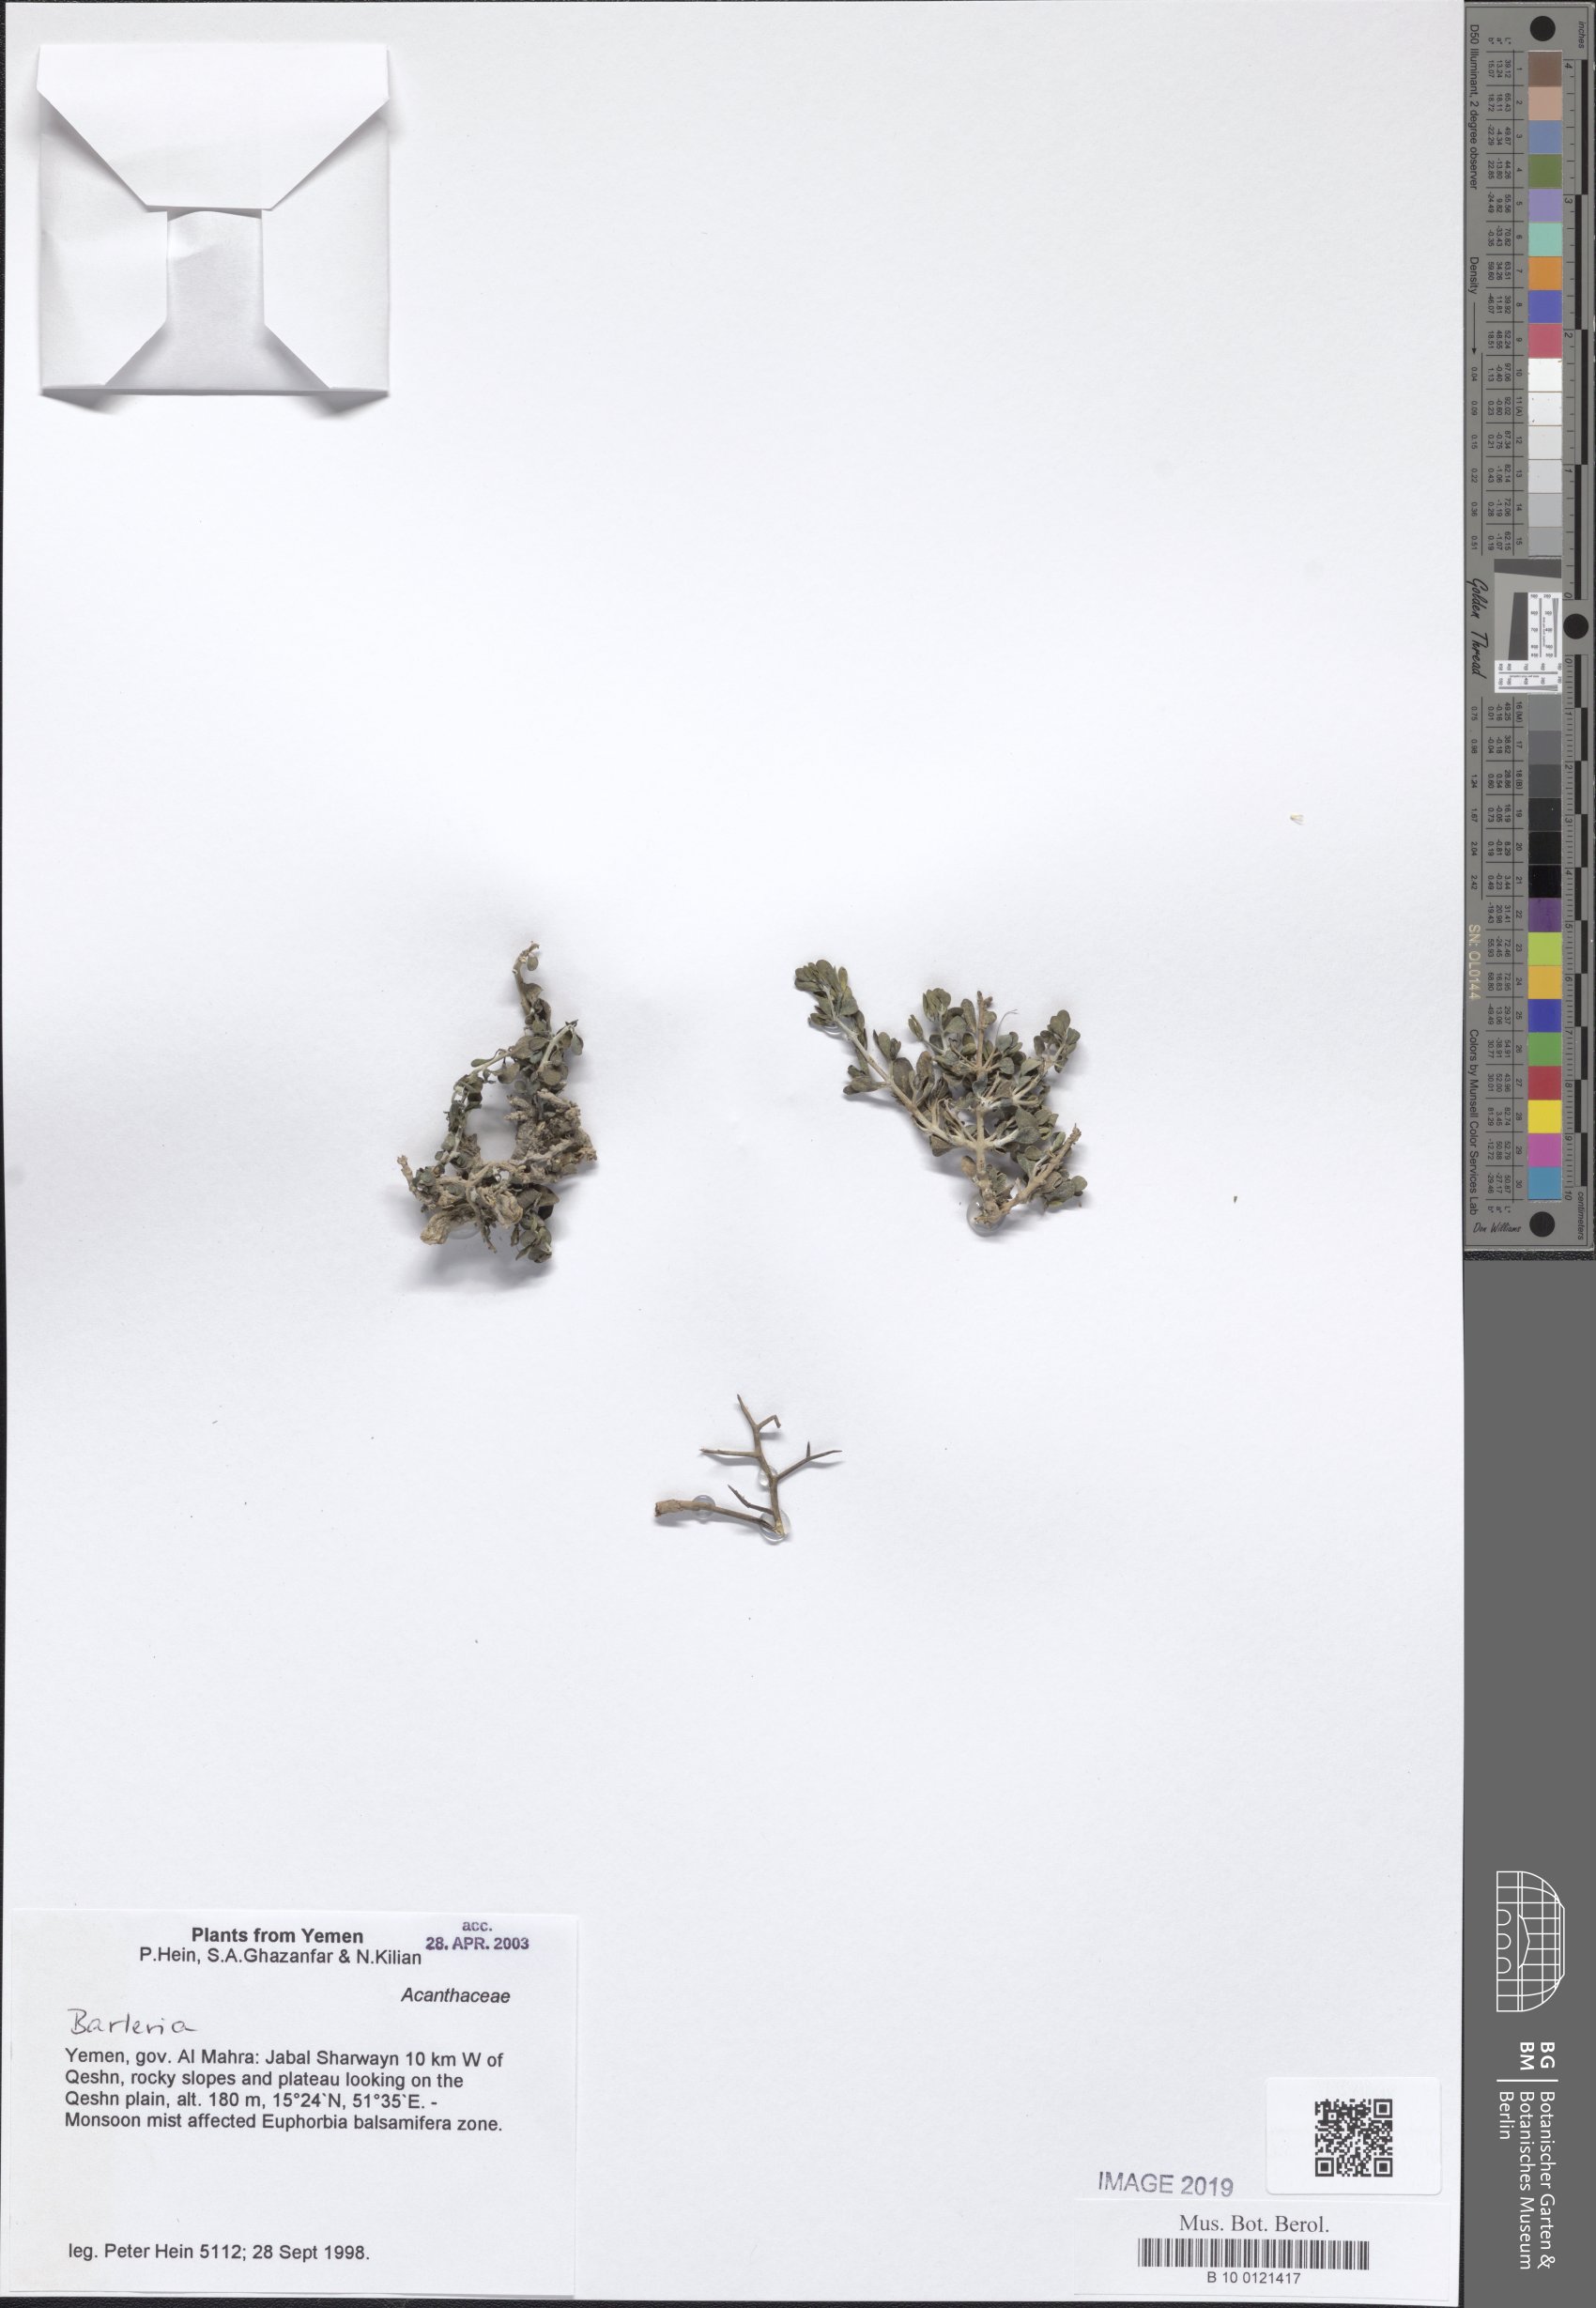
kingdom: Plantae
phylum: Tracheophyta
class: Magnoliopsida
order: Lamiales
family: Acanthaceae
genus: Barleria
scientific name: Barleria
